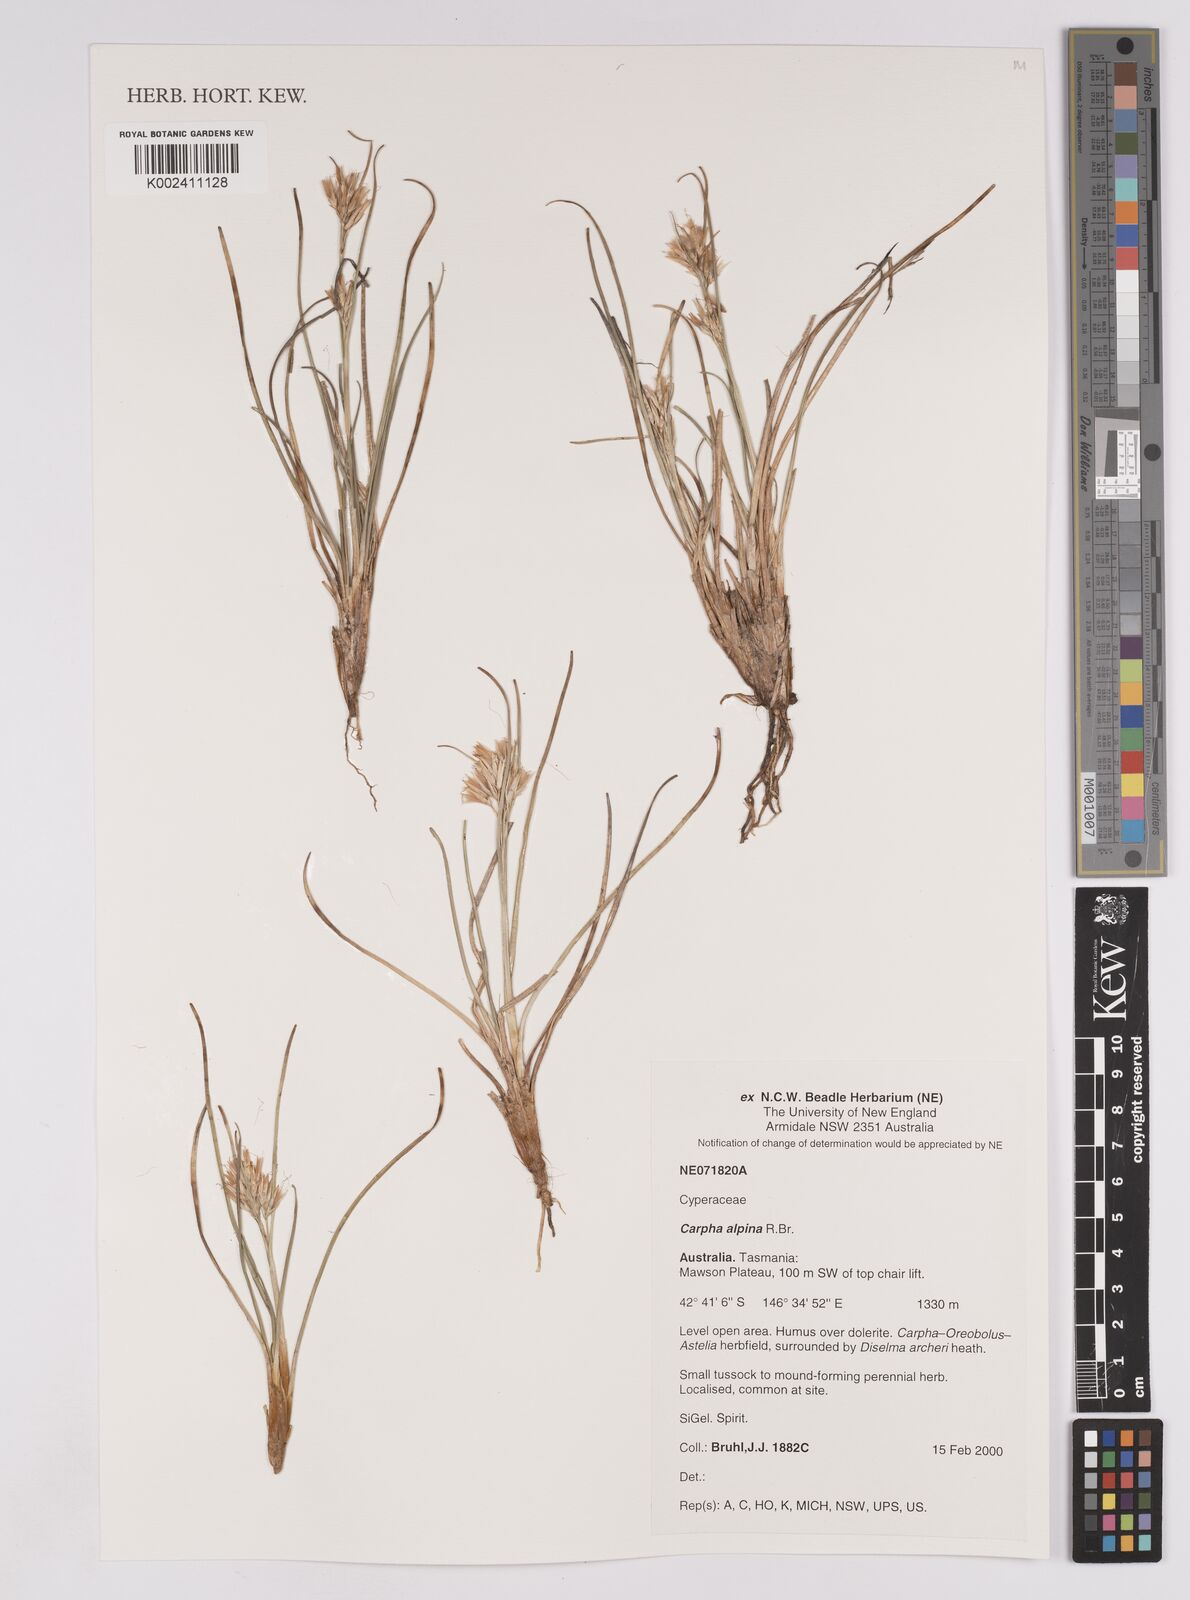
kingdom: Plantae
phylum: Tracheophyta
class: Liliopsida
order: Poales
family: Cyperaceae
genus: Carpha
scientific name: Carpha alpina
